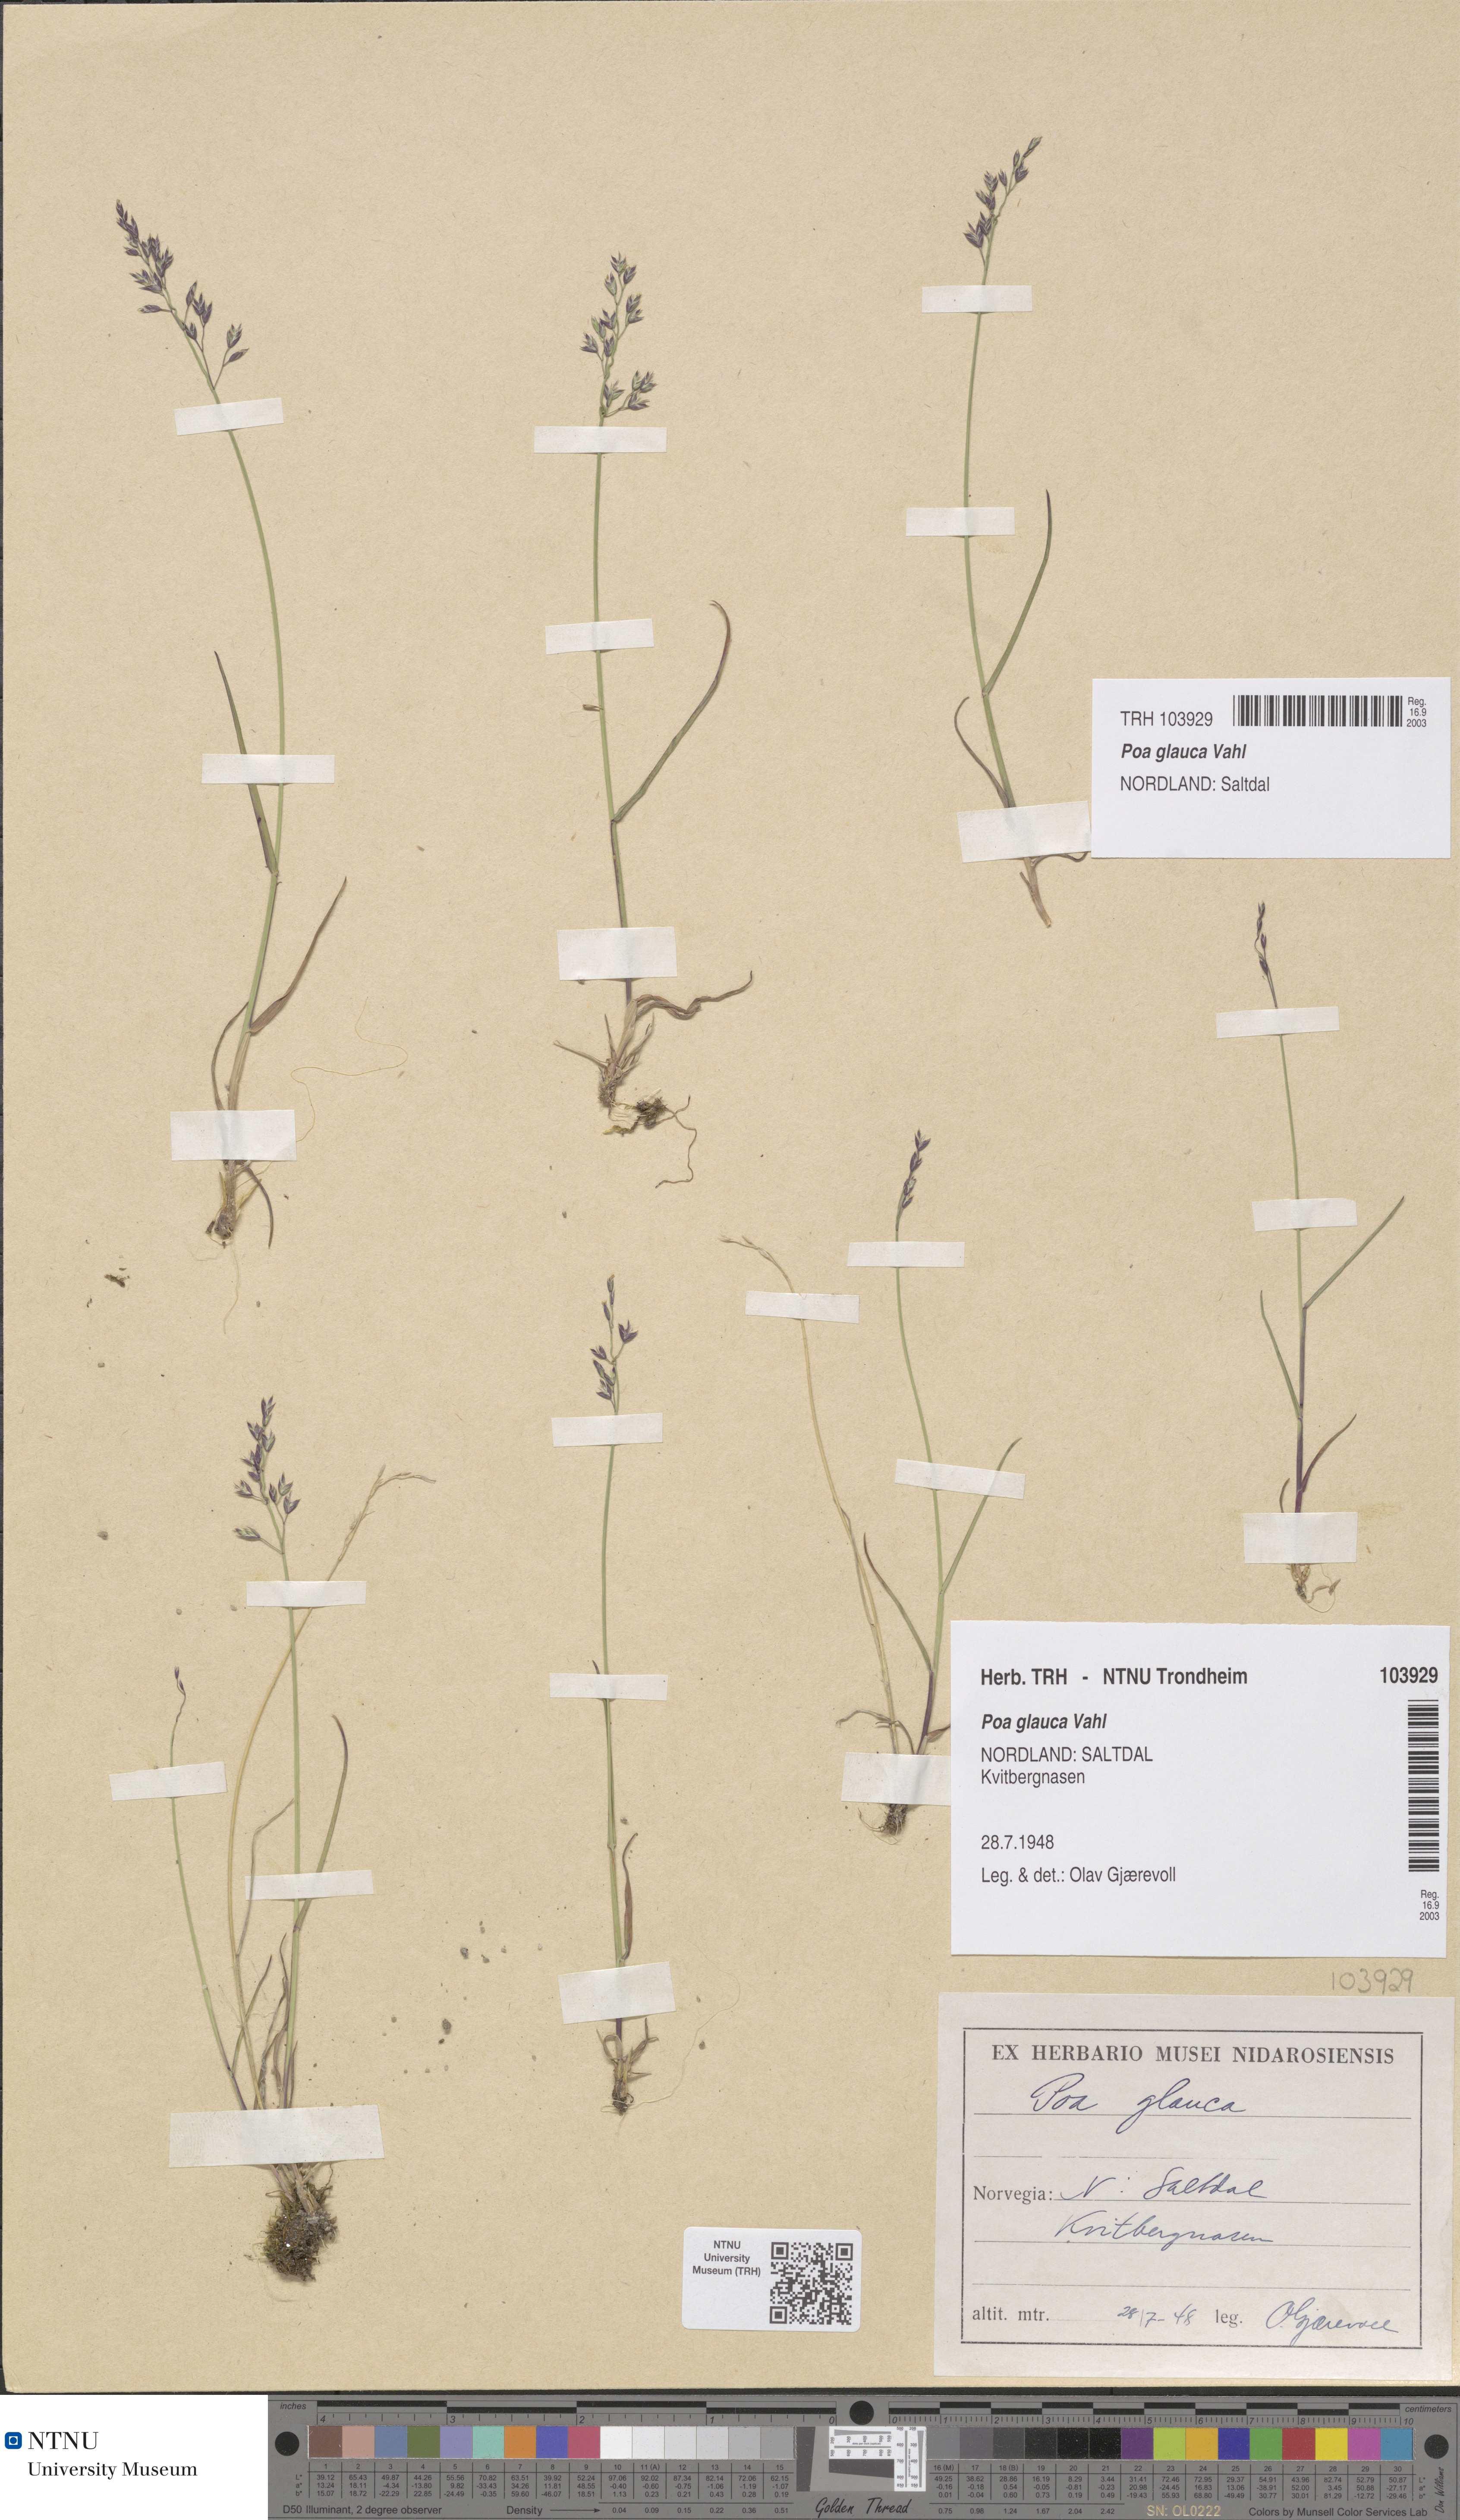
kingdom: Plantae
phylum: Tracheophyta
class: Liliopsida
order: Poales
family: Poaceae
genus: Poa
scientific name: Poa glauca
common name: Glaucous bluegrass
